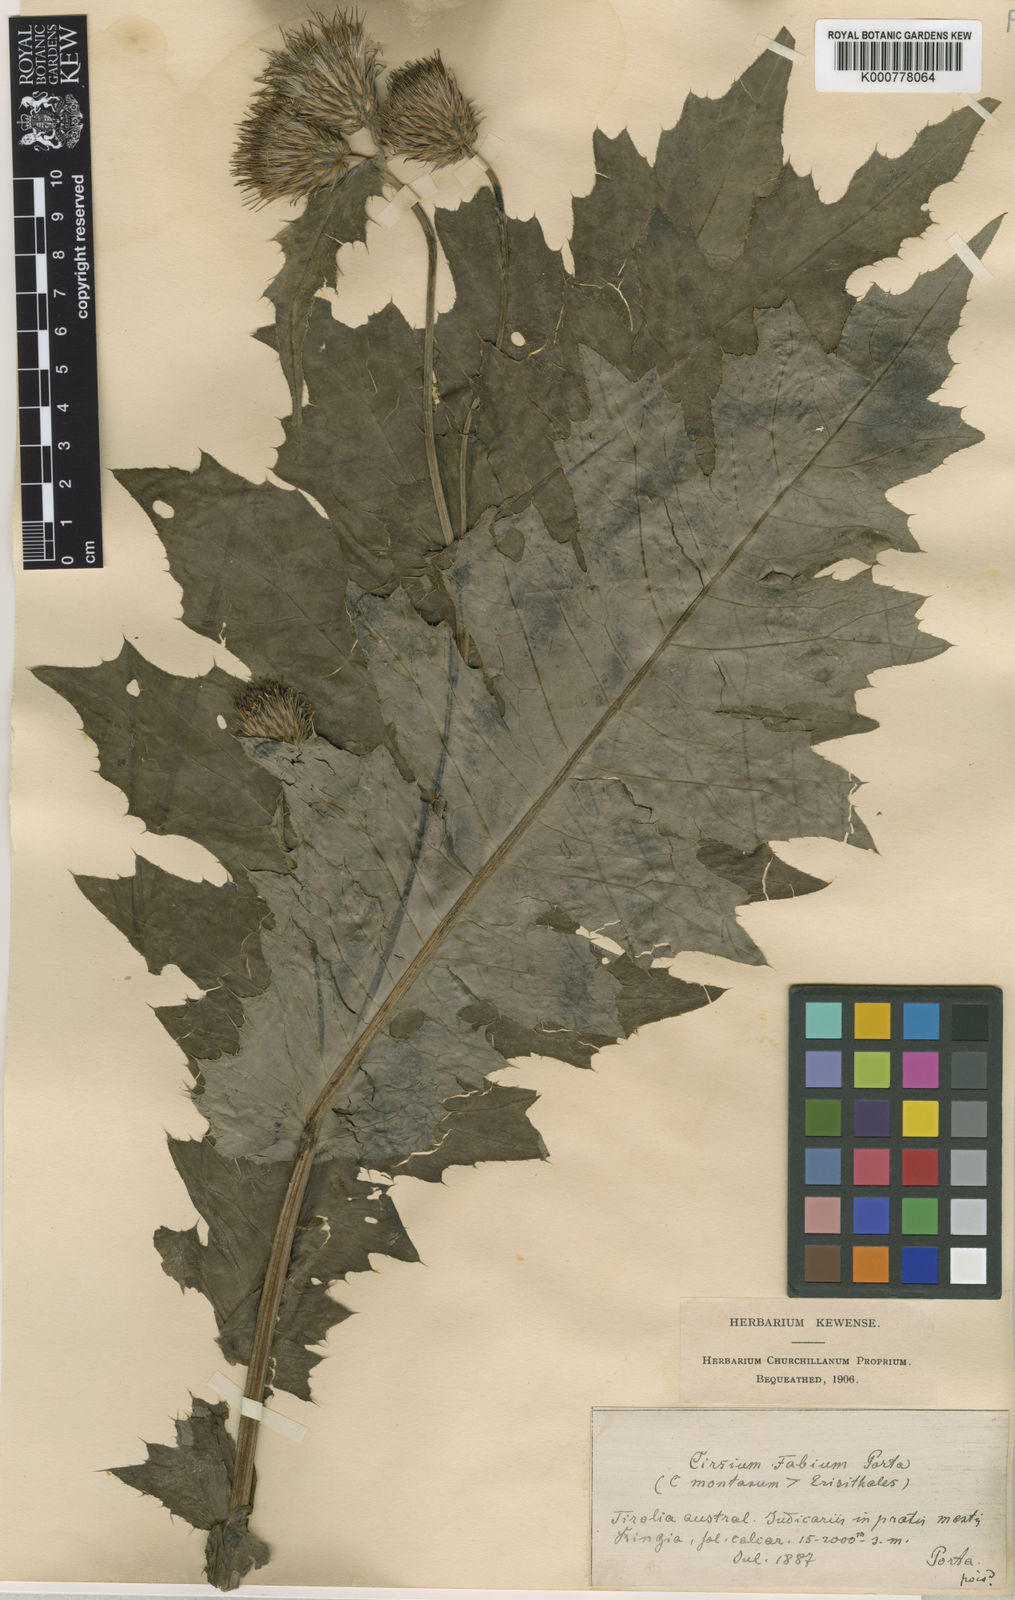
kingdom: Plantae
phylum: Tracheophyta
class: Magnoliopsida
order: Asterales
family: Asteraceae
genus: Cirsium
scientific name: Cirsium erisithales
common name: Yellow thistle
